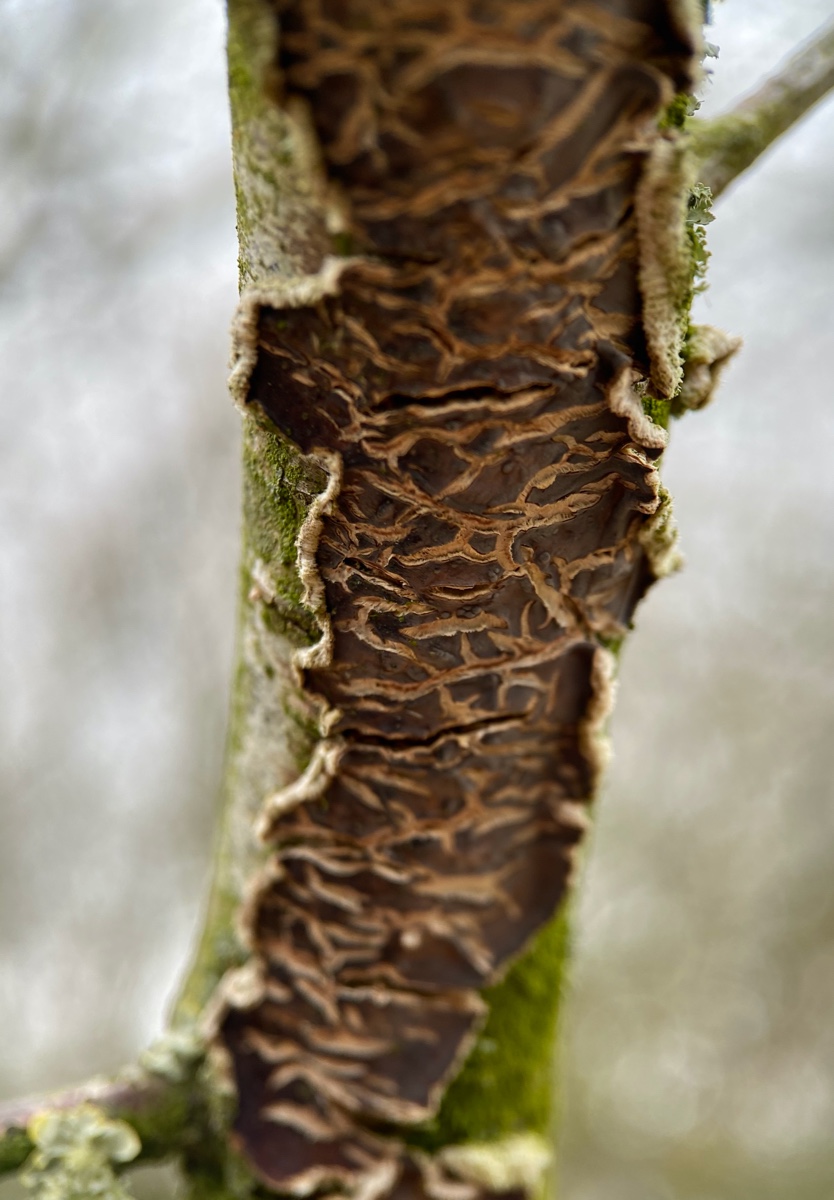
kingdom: Fungi
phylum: Basidiomycota
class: Agaricomycetes
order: Agaricales
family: Cyphellaceae
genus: Chondrostereum
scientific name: Chondrostereum purpureum
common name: purpurlædersvamp
